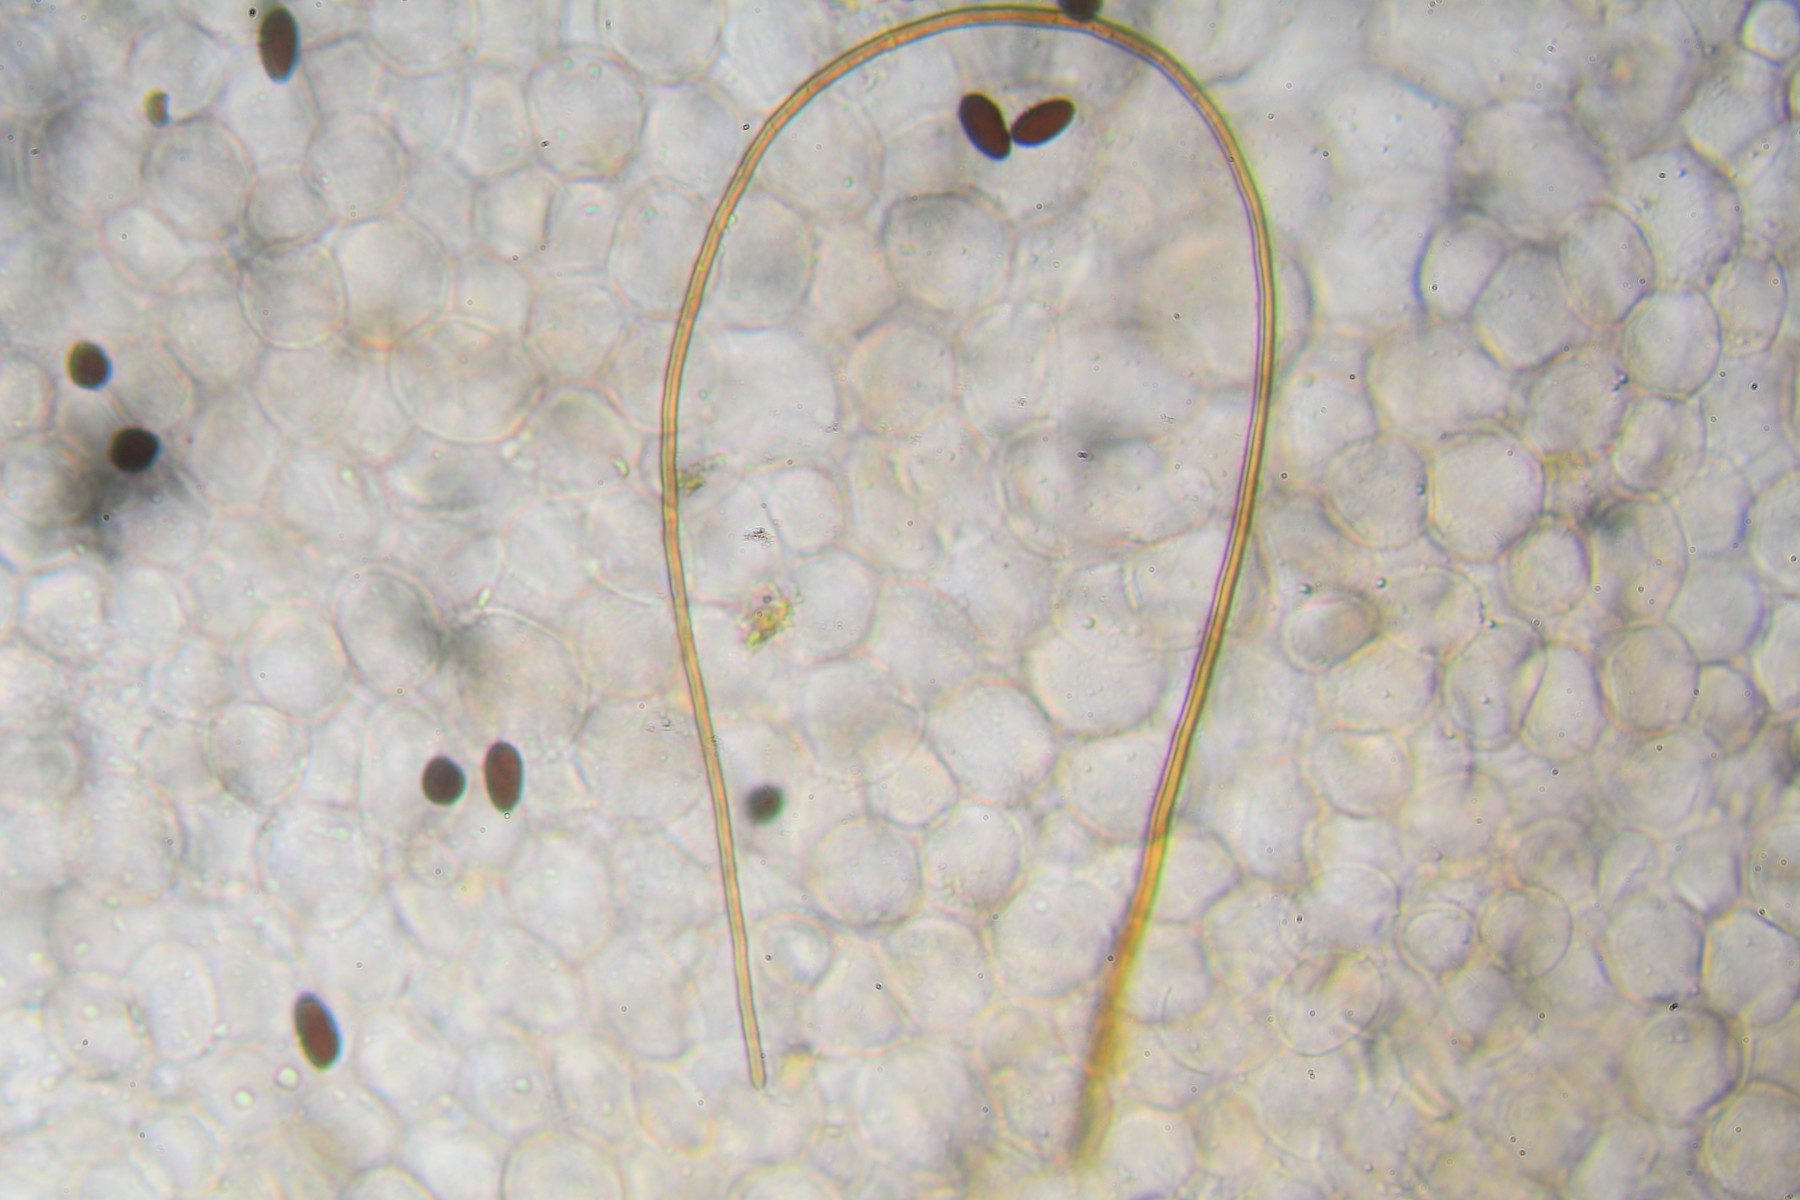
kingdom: Fungi
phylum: Basidiomycota
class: Agaricomycetes
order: Agaricales
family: Psathyrellaceae
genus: Parasola
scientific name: Parasola conopilea
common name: kegle-hjulhat
